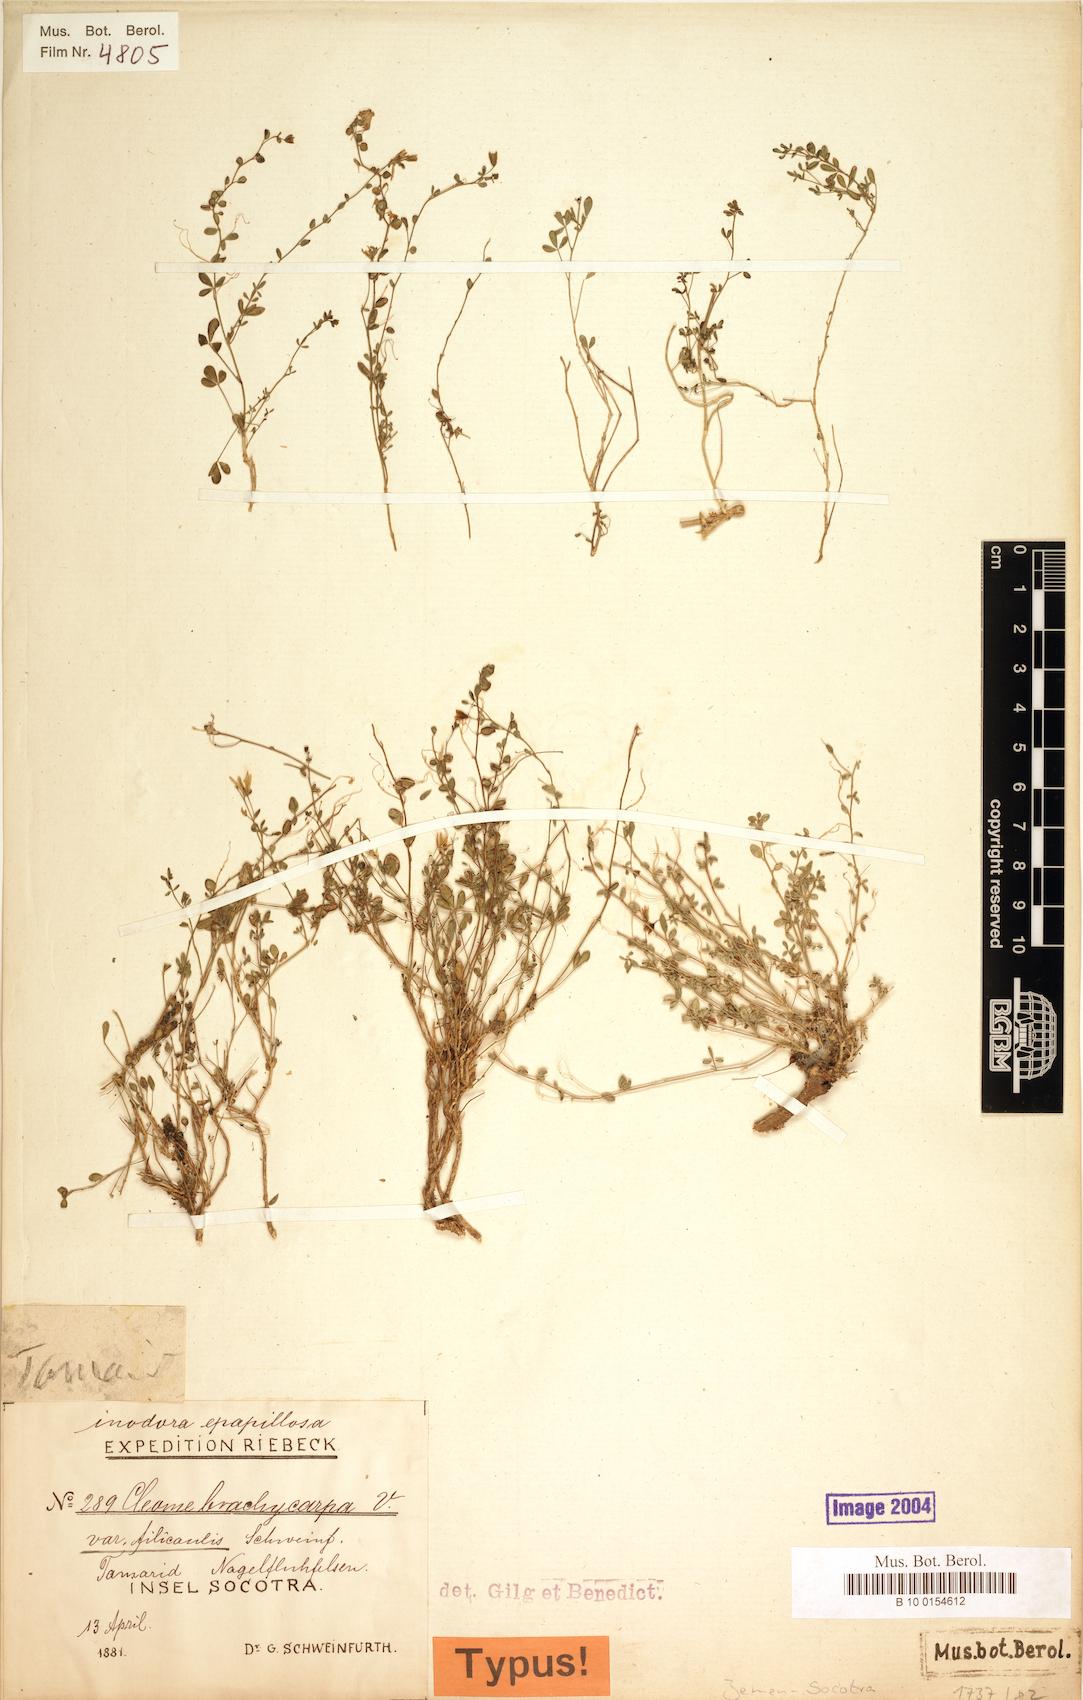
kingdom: Plantae
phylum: Tracheophyta
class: Magnoliopsida
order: Brassicales
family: Cleomaceae
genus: Stylidocleome
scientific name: Stylidocleome brachycarpa
